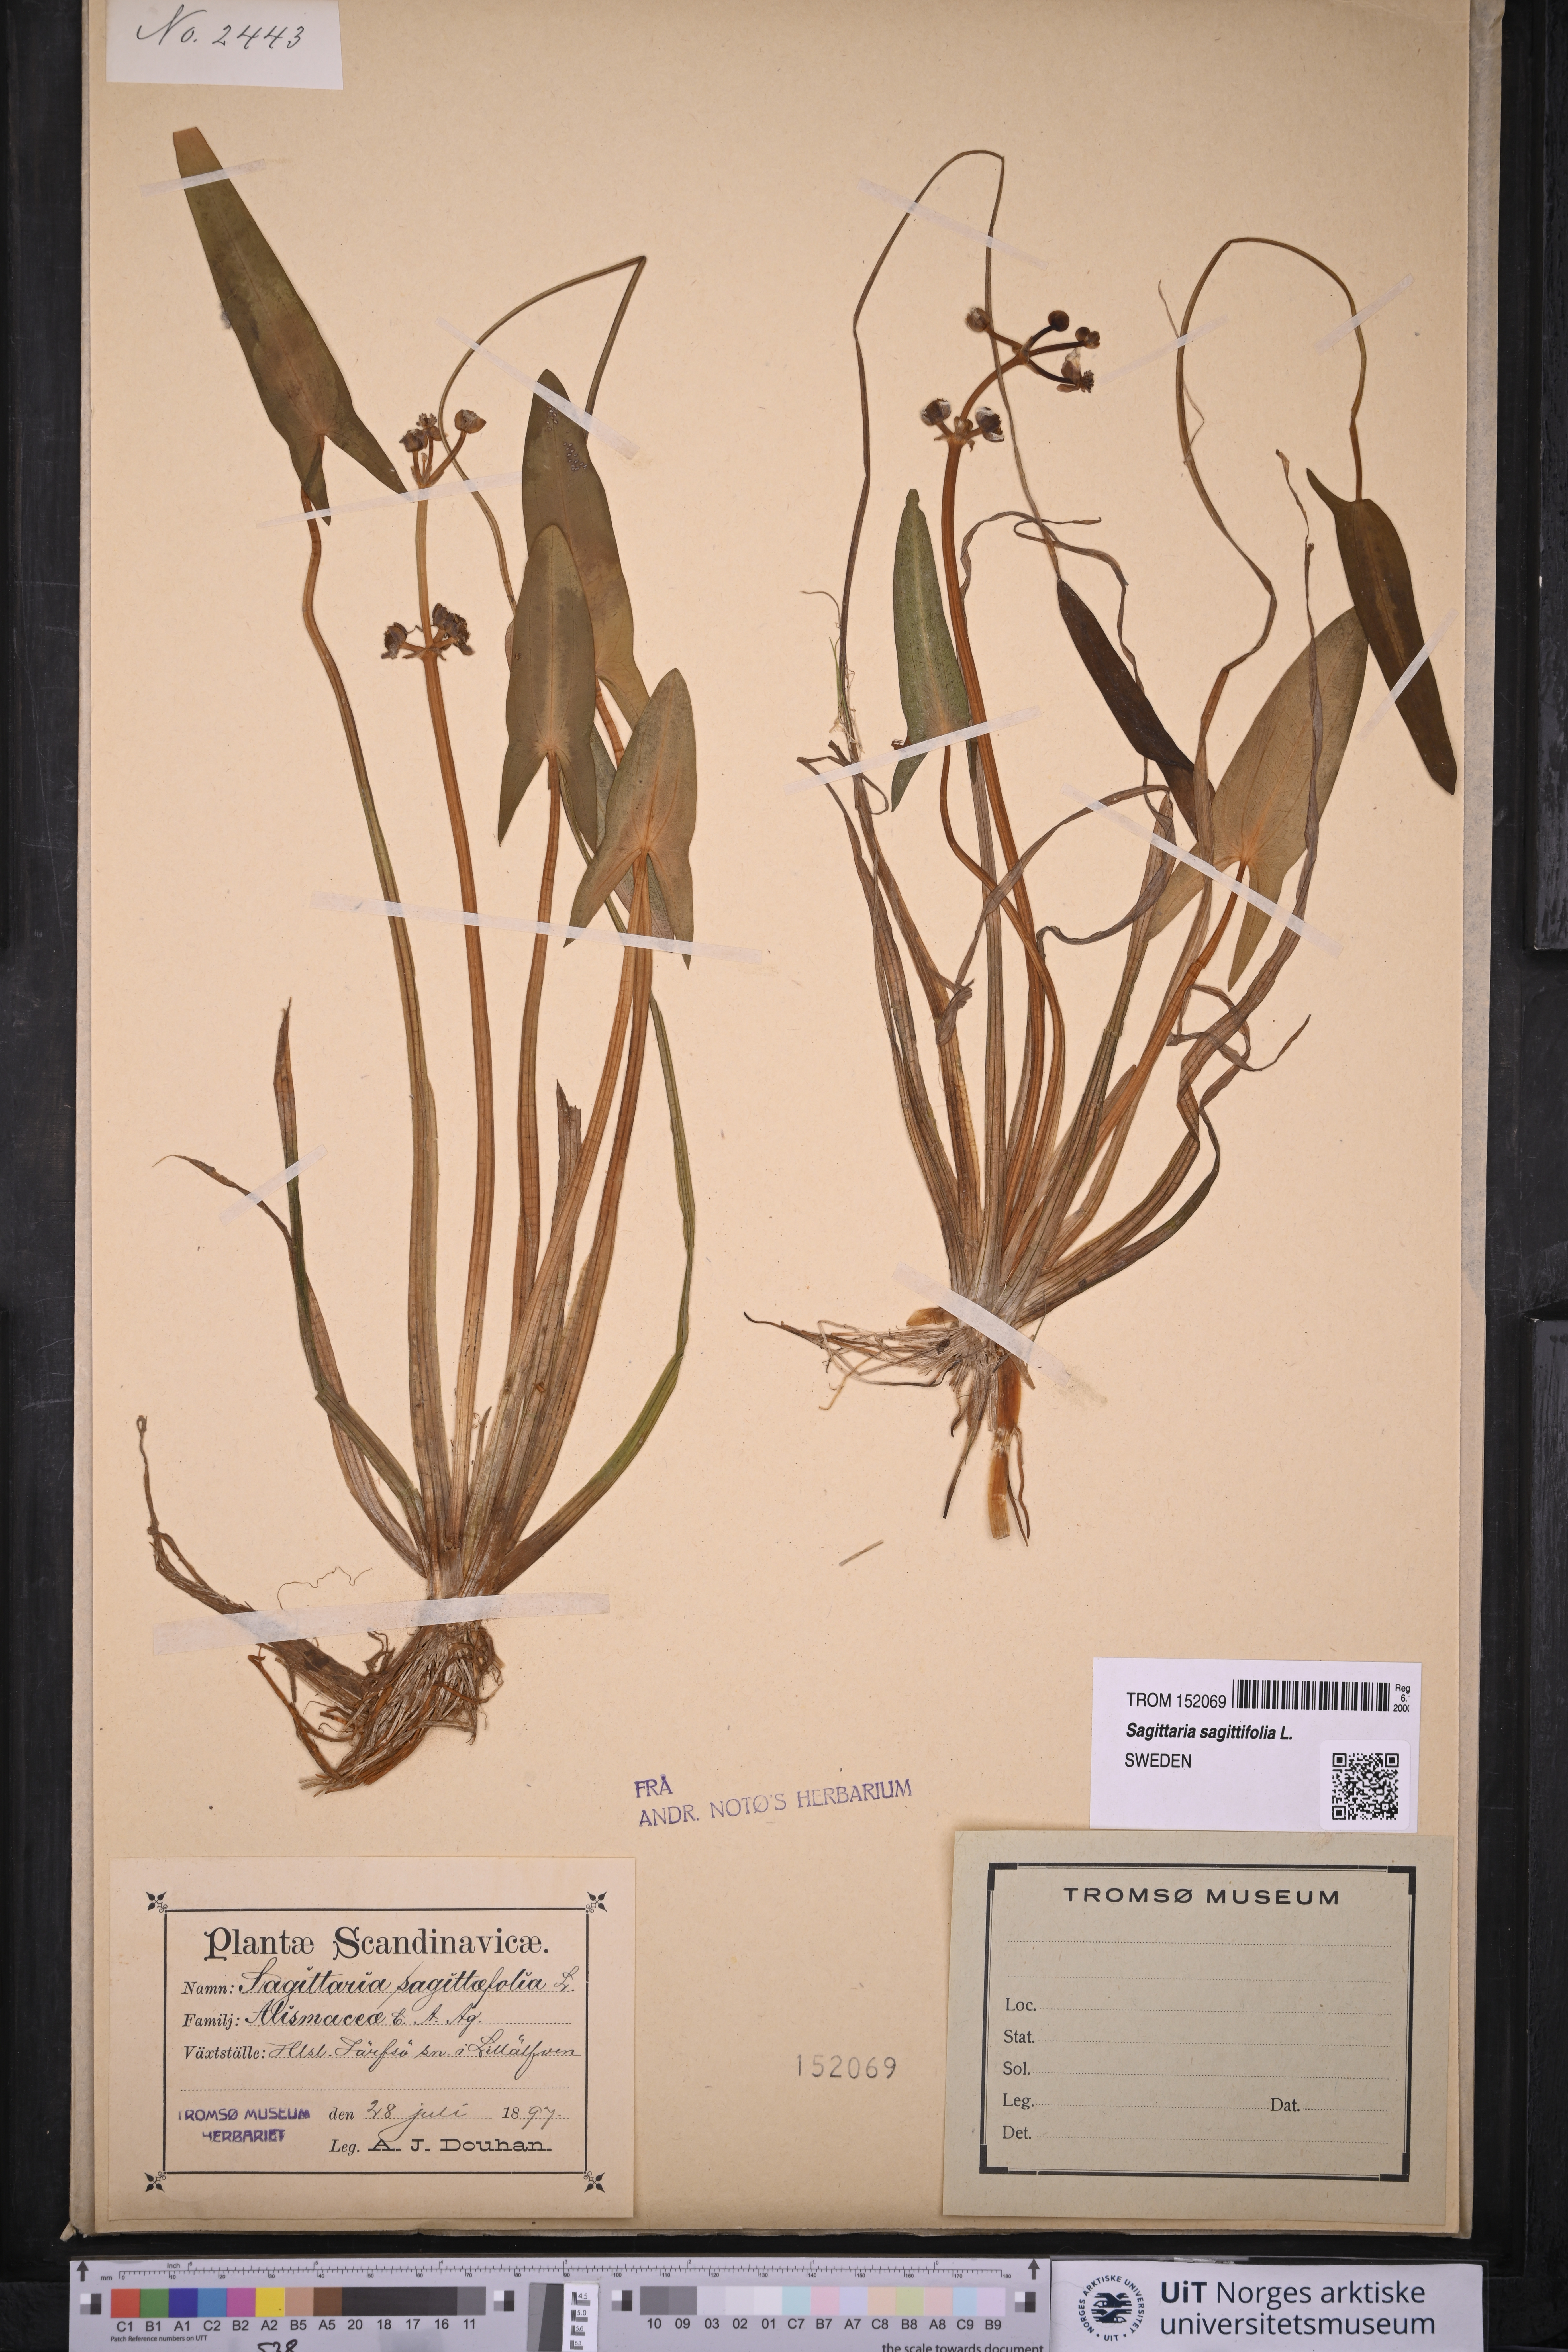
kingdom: Plantae
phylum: Tracheophyta
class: Liliopsida
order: Alismatales
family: Alismataceae
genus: Sagittaria
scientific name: Sagittaria sagittifolia
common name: Arrowhead
